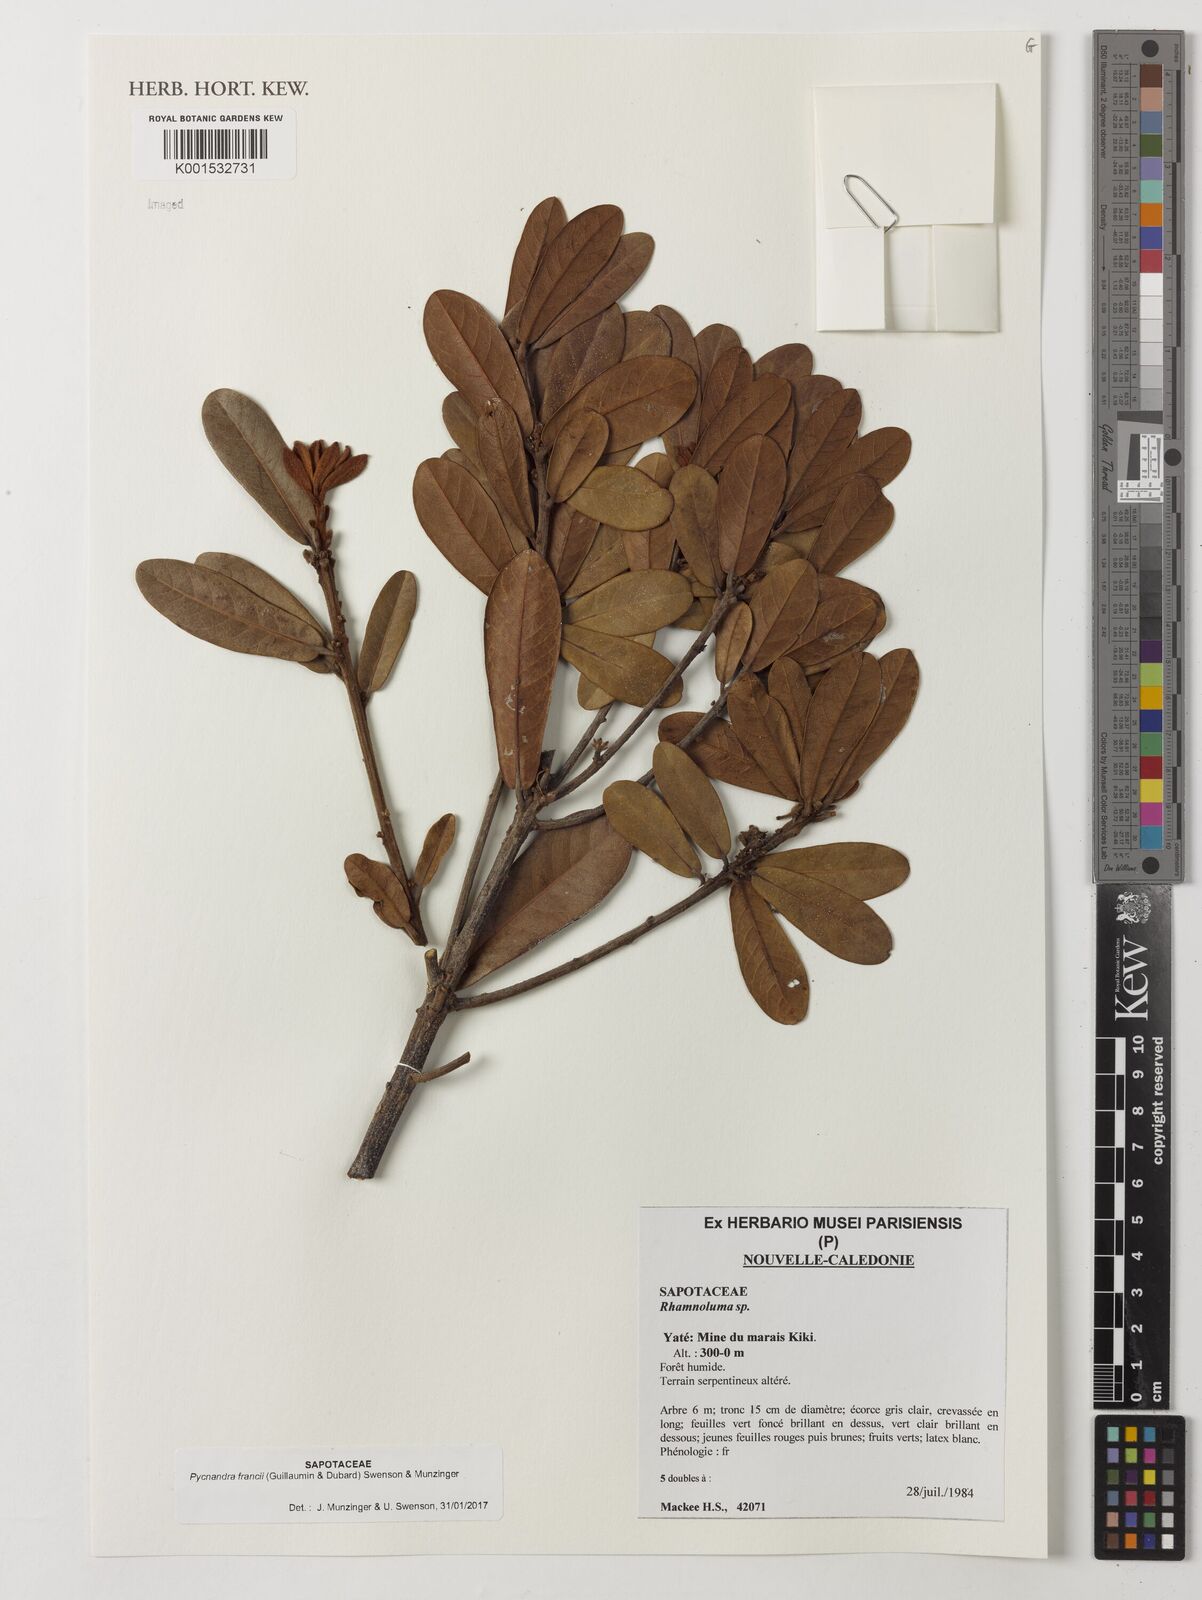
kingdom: Plantae
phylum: Tracheophyta
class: Magnoliopsida
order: Ericales
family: Sapotaceae
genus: Pichonia
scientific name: Pichonia
